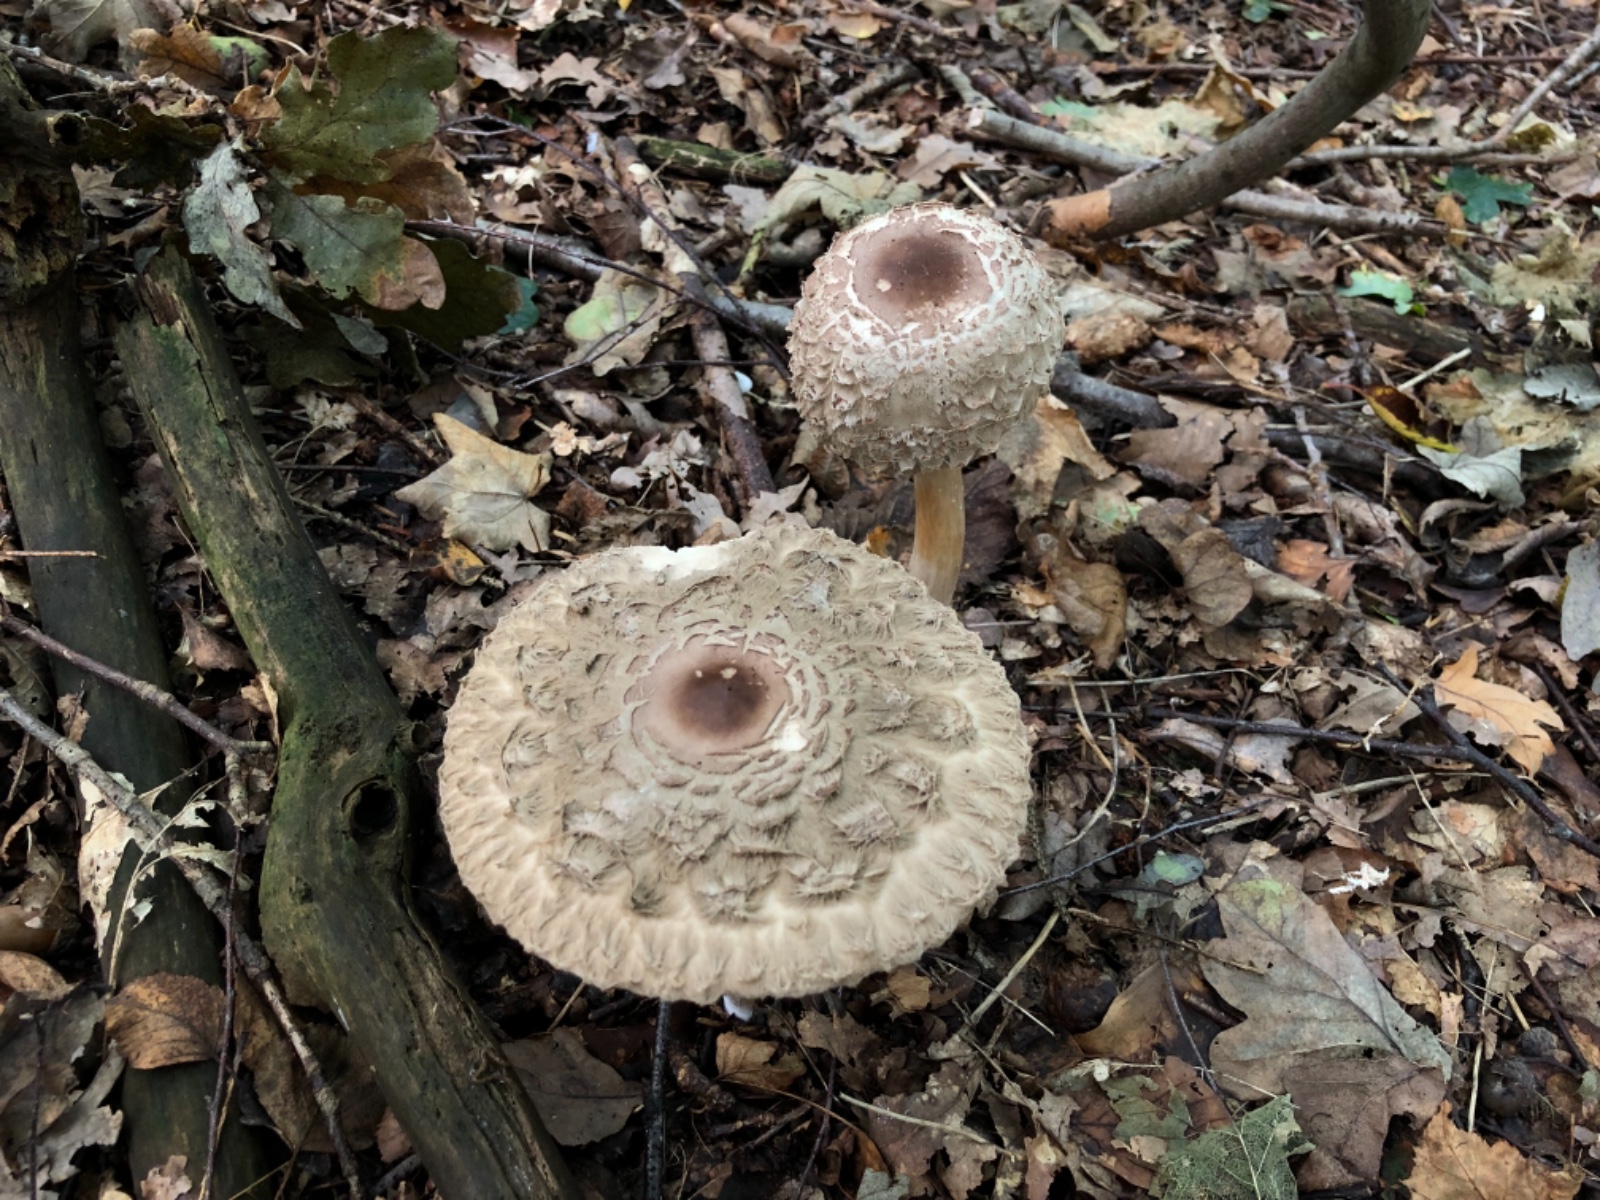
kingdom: Fungi
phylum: Basidiomycota
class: Agaricomycetes
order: Agaricales
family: Agaricaceae
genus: Chlorophyllum
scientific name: Chlorophyllum olivieri
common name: almindelig rabarberhat
